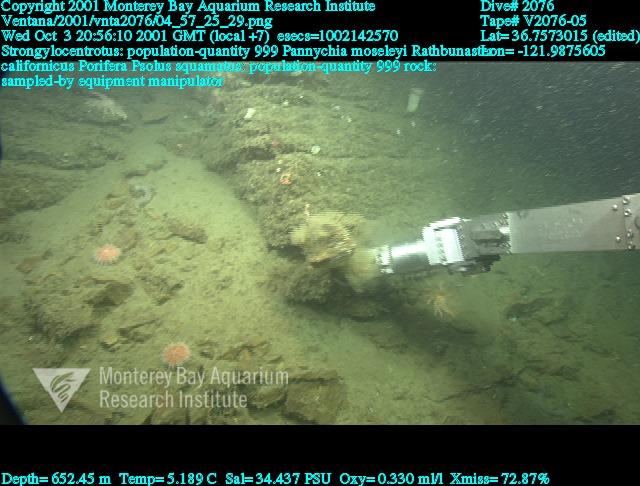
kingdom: Animalia
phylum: Porifera
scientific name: Porifera
